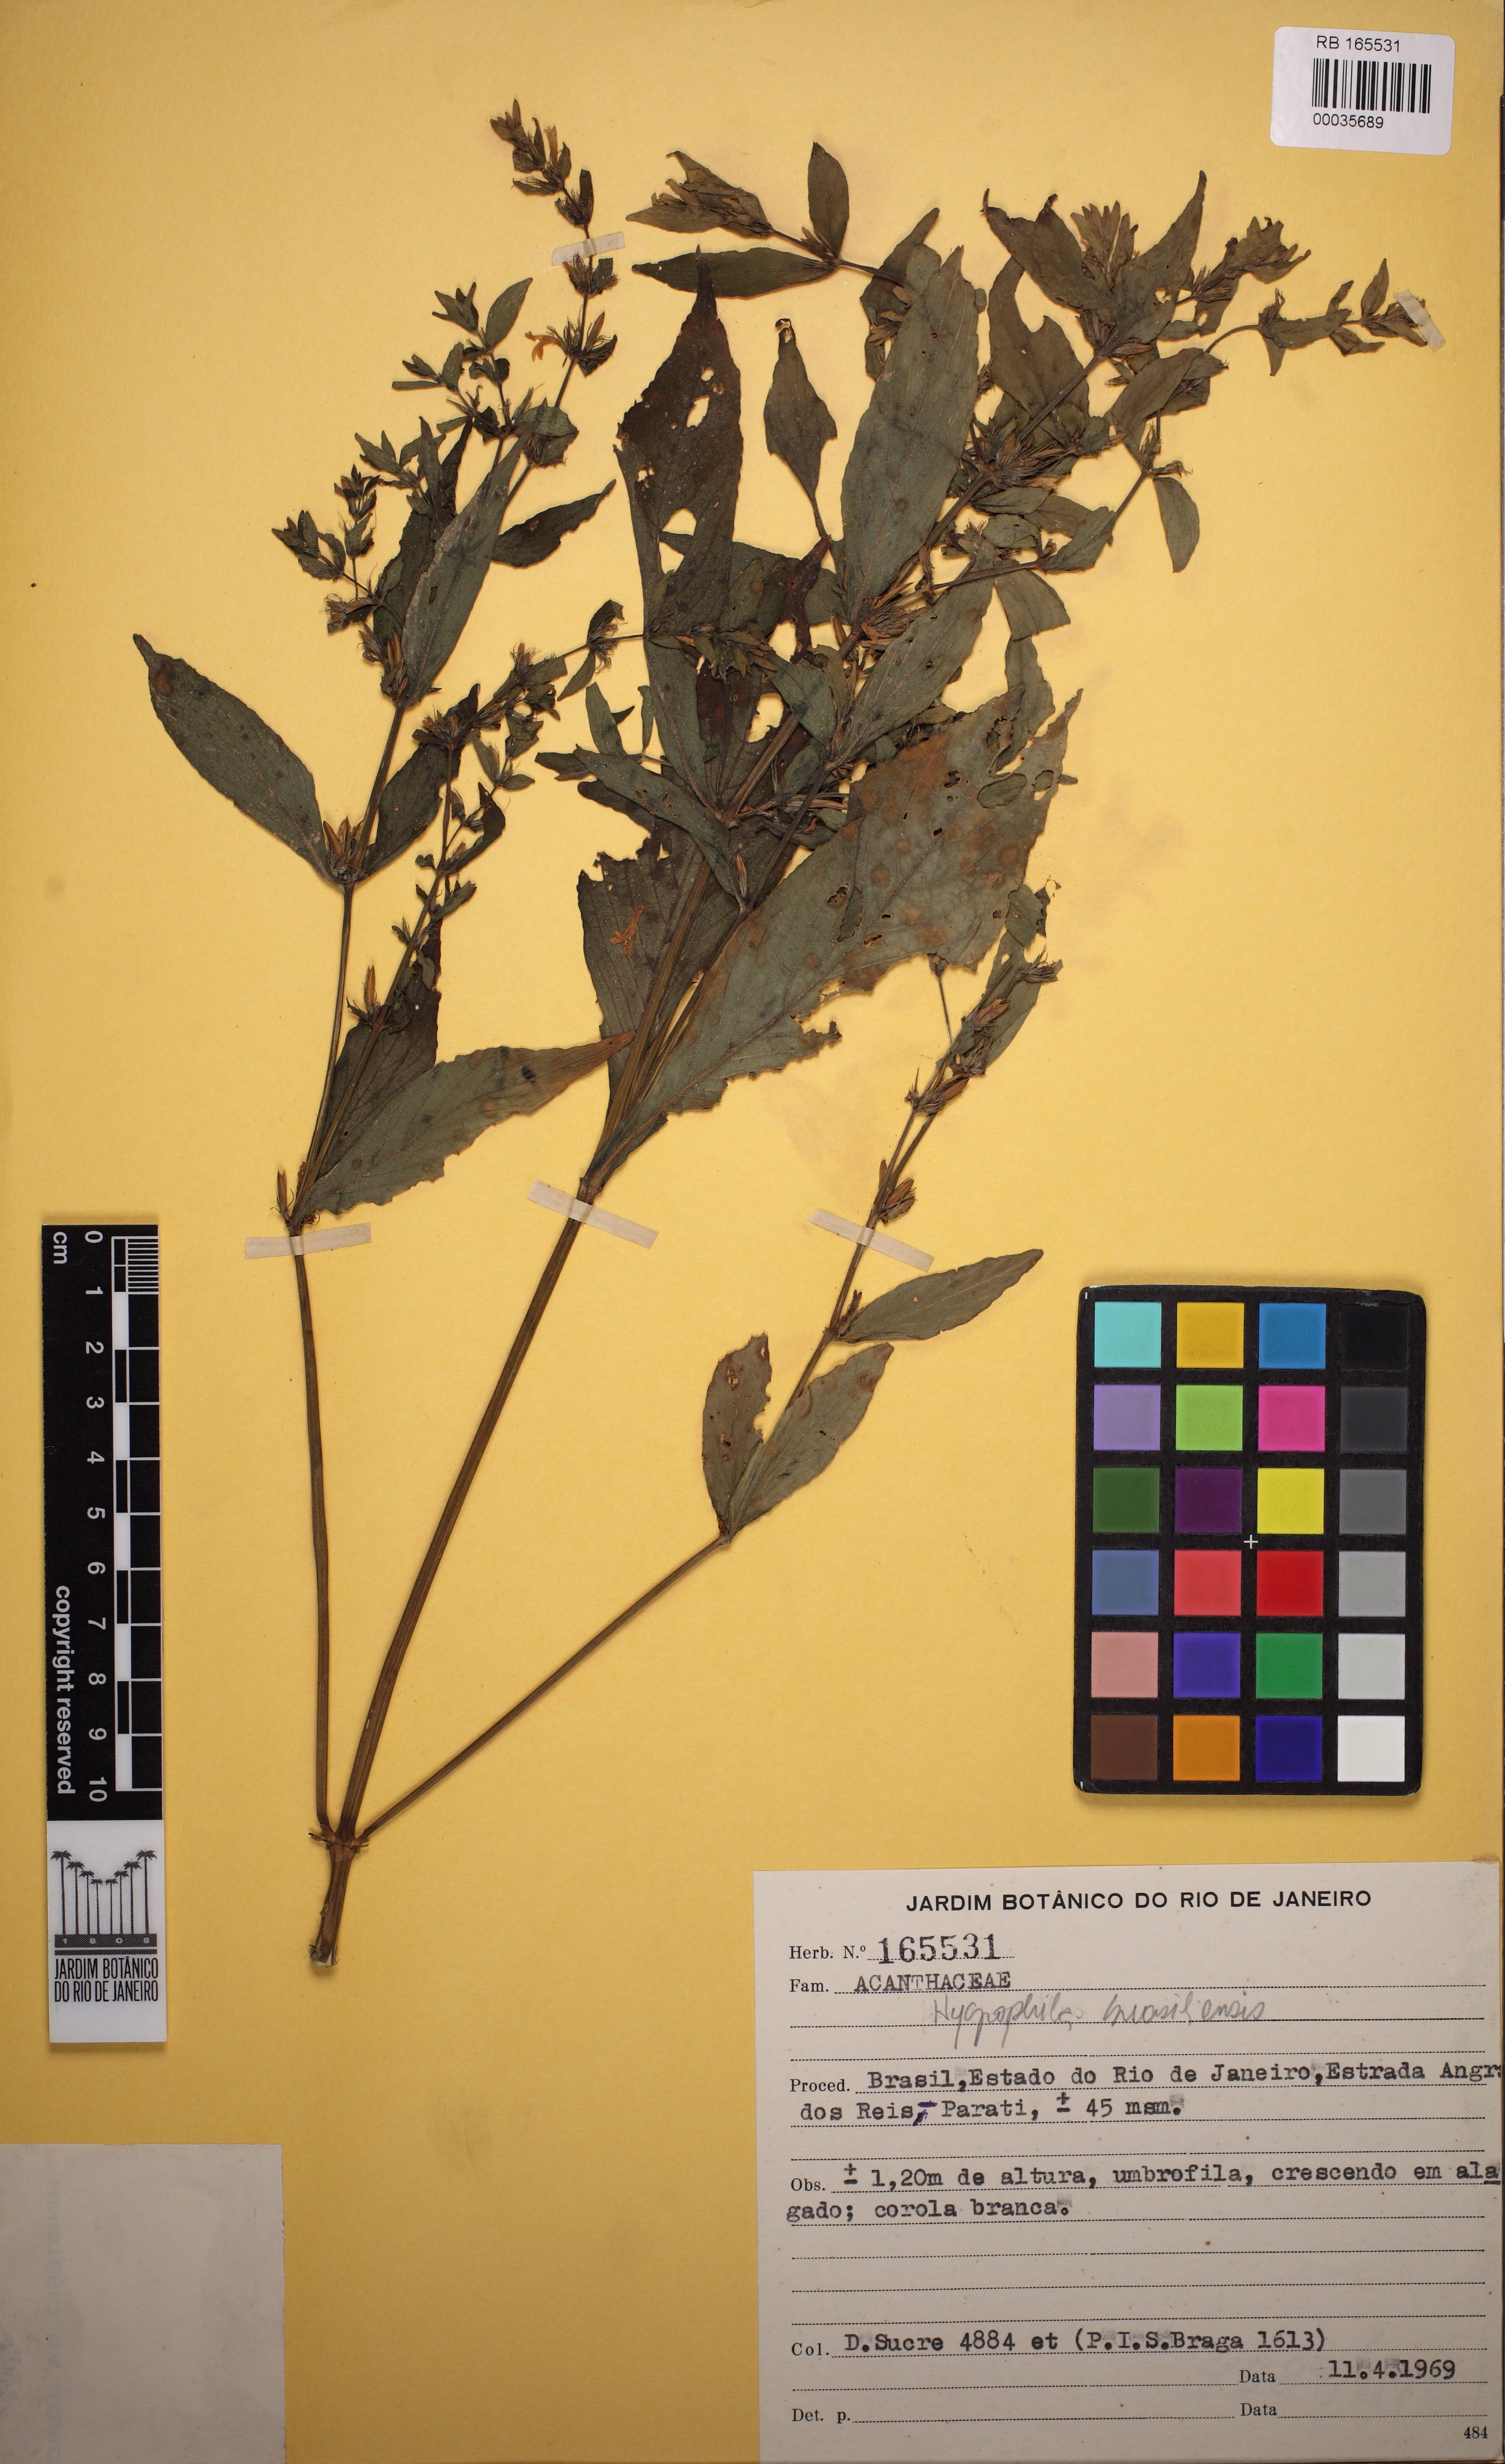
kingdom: Plantae
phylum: Tracheophyta
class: Magnoliopsida
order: Lamiales
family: Acanthaceae
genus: Hygrophila
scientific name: Hygrophila costata
